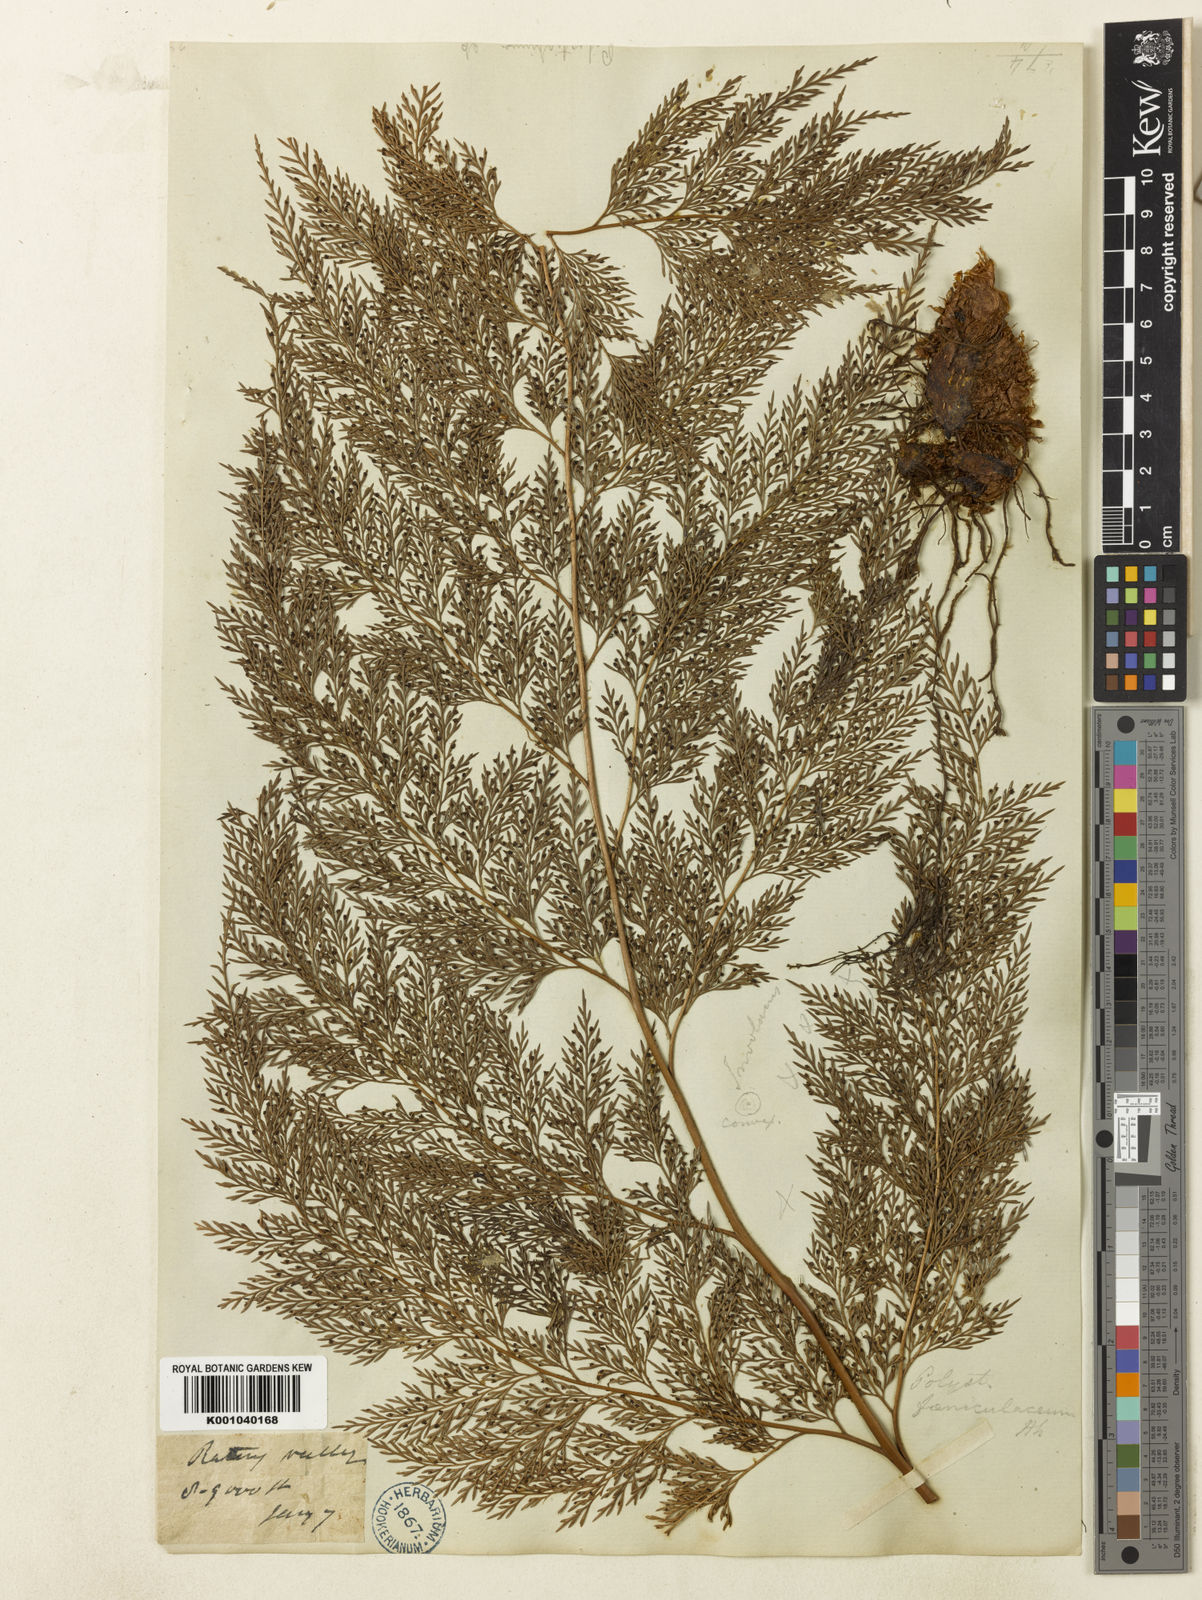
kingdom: Plantae
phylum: Tracheophyta
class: Polypodiopsida
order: Polypodiales
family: Dryopteridaceae
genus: Arachniodes
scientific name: Arachniodes superba
